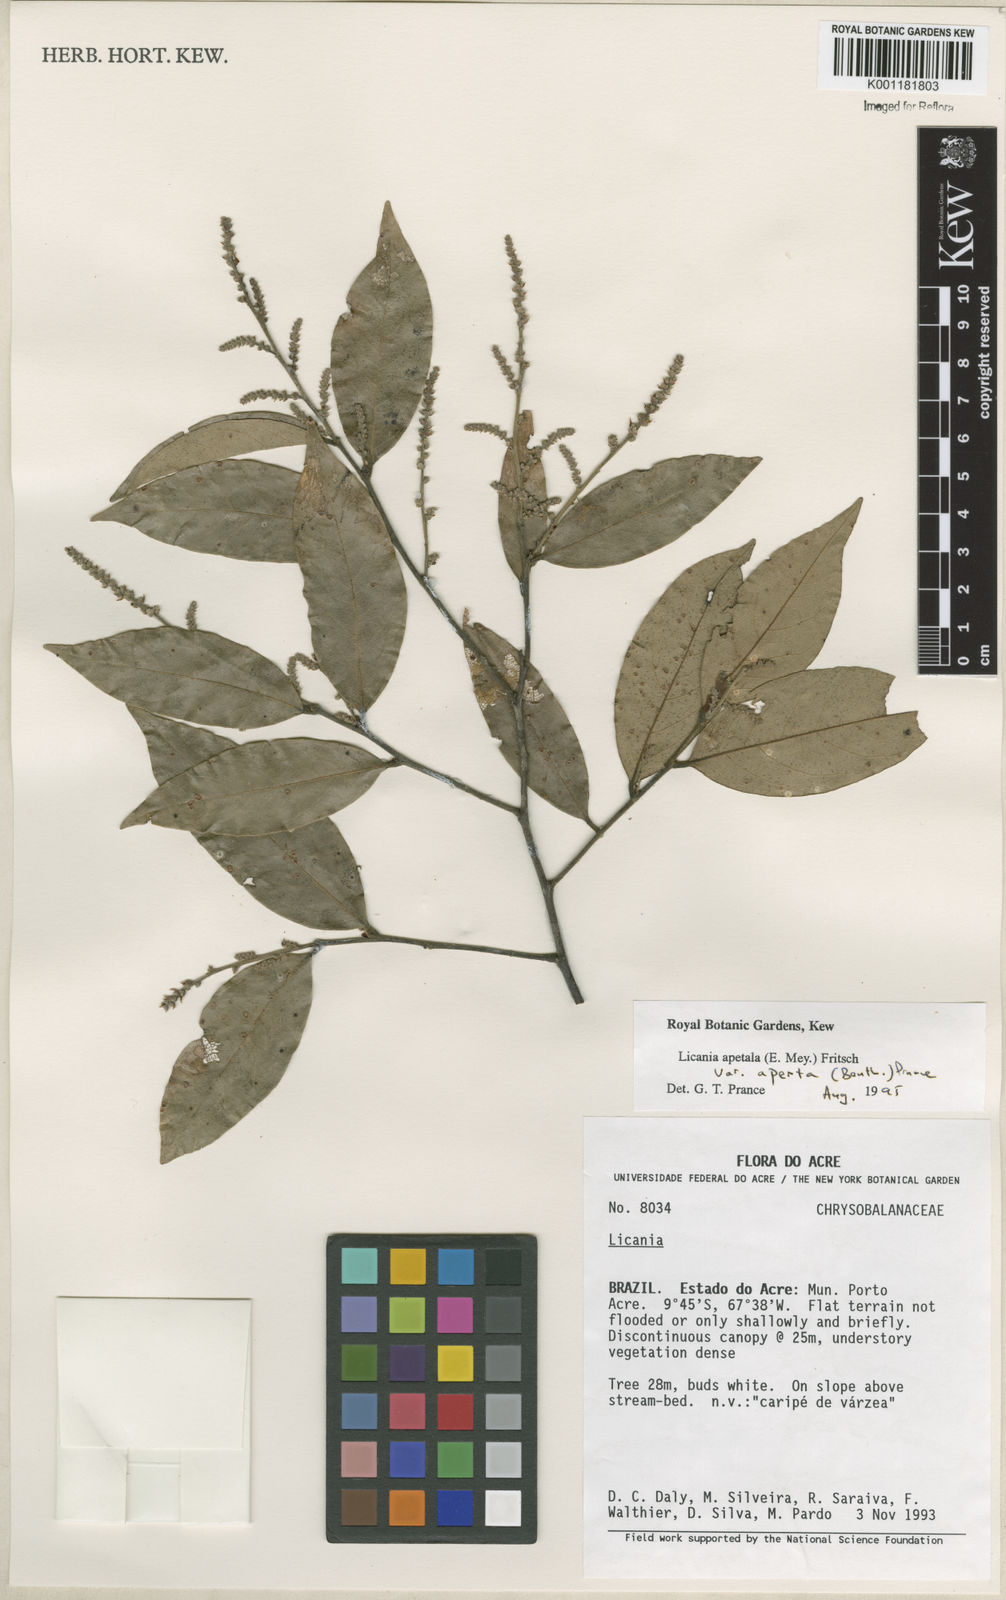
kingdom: Plantae
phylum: Tracheophyta
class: Magnoliopsida
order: Malpighiales
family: Chrysobalanaceae
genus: Leptobalanus
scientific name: Leptobalanus apetalus
